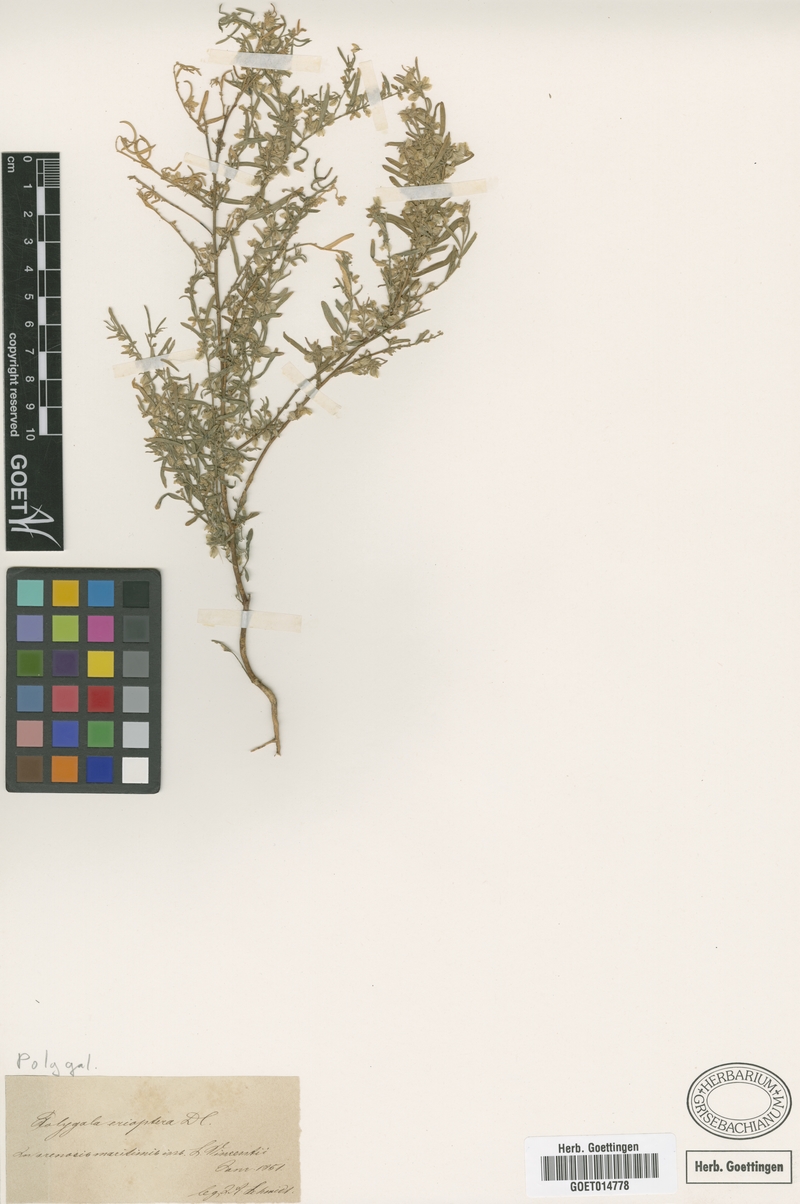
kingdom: Plantae
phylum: Tracheophyta
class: Magnoliopsida
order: Fabales
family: Polygalaceae
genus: Polygala
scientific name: Polygala erioptera
